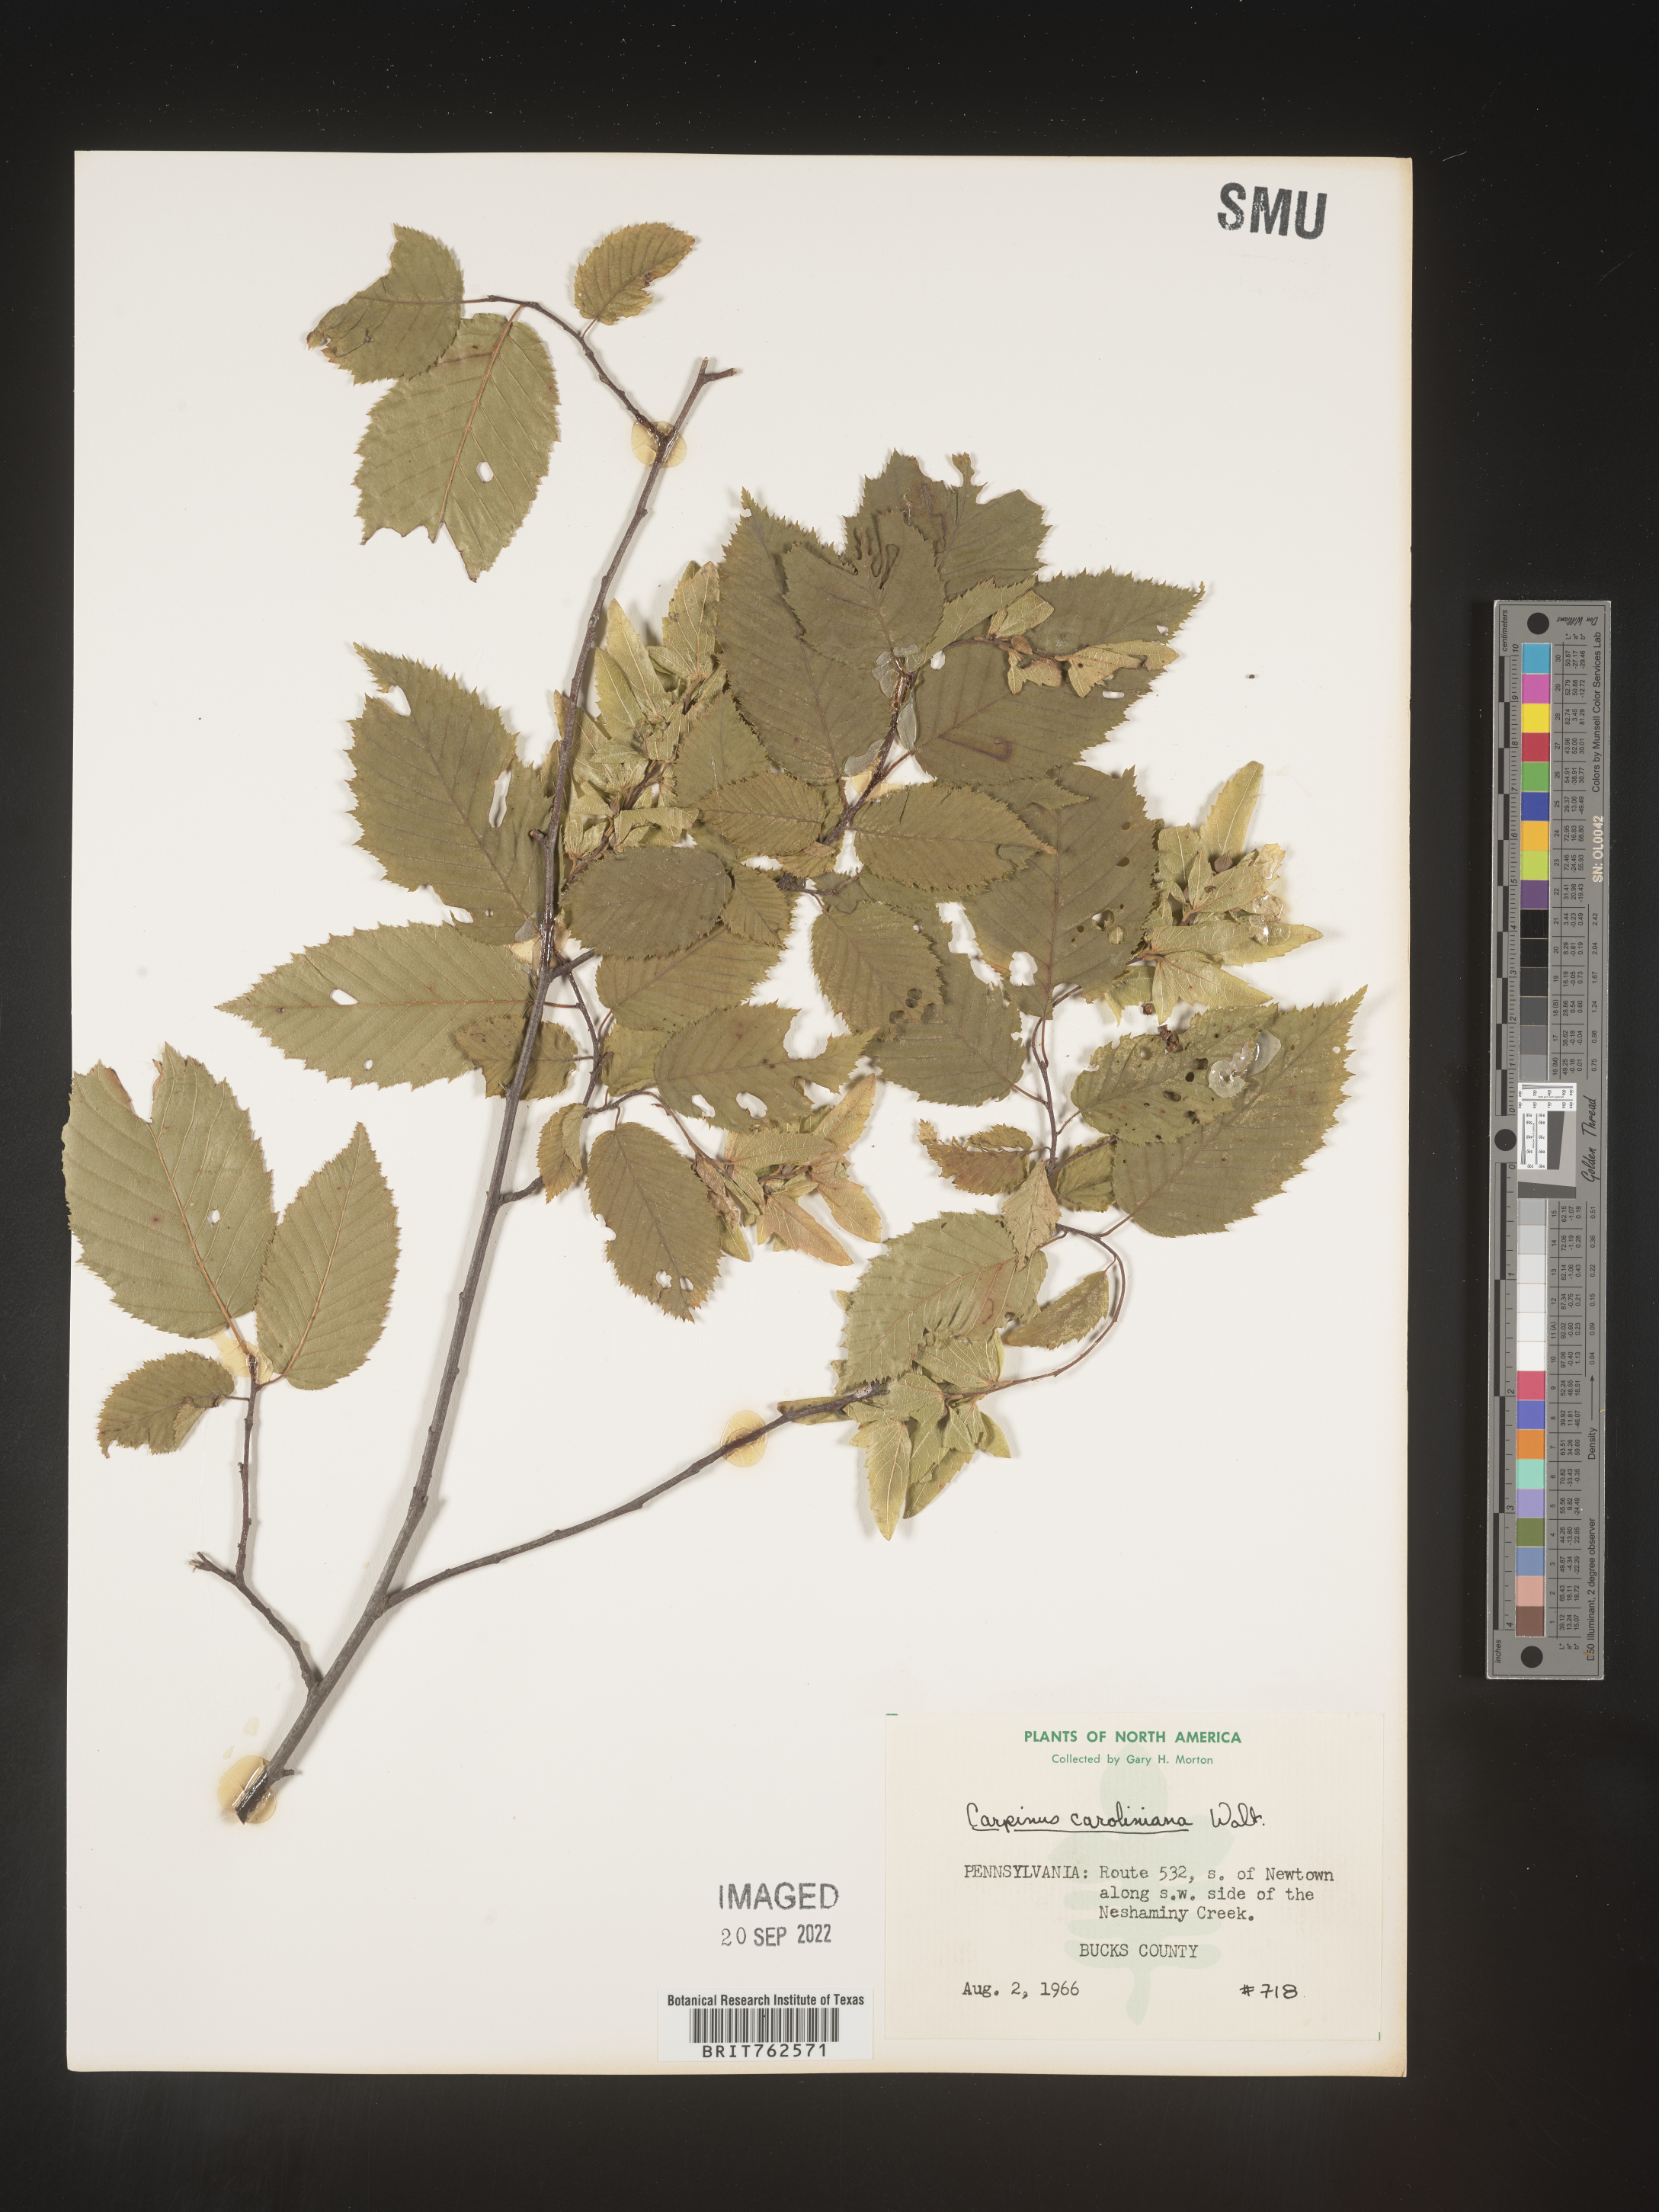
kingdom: Plantae
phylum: Tracheophyta
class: Magnoliopsida
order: Fagales
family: Betulaceae
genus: Carpinus
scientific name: Carpinus caroliniana
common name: American hornbeam
